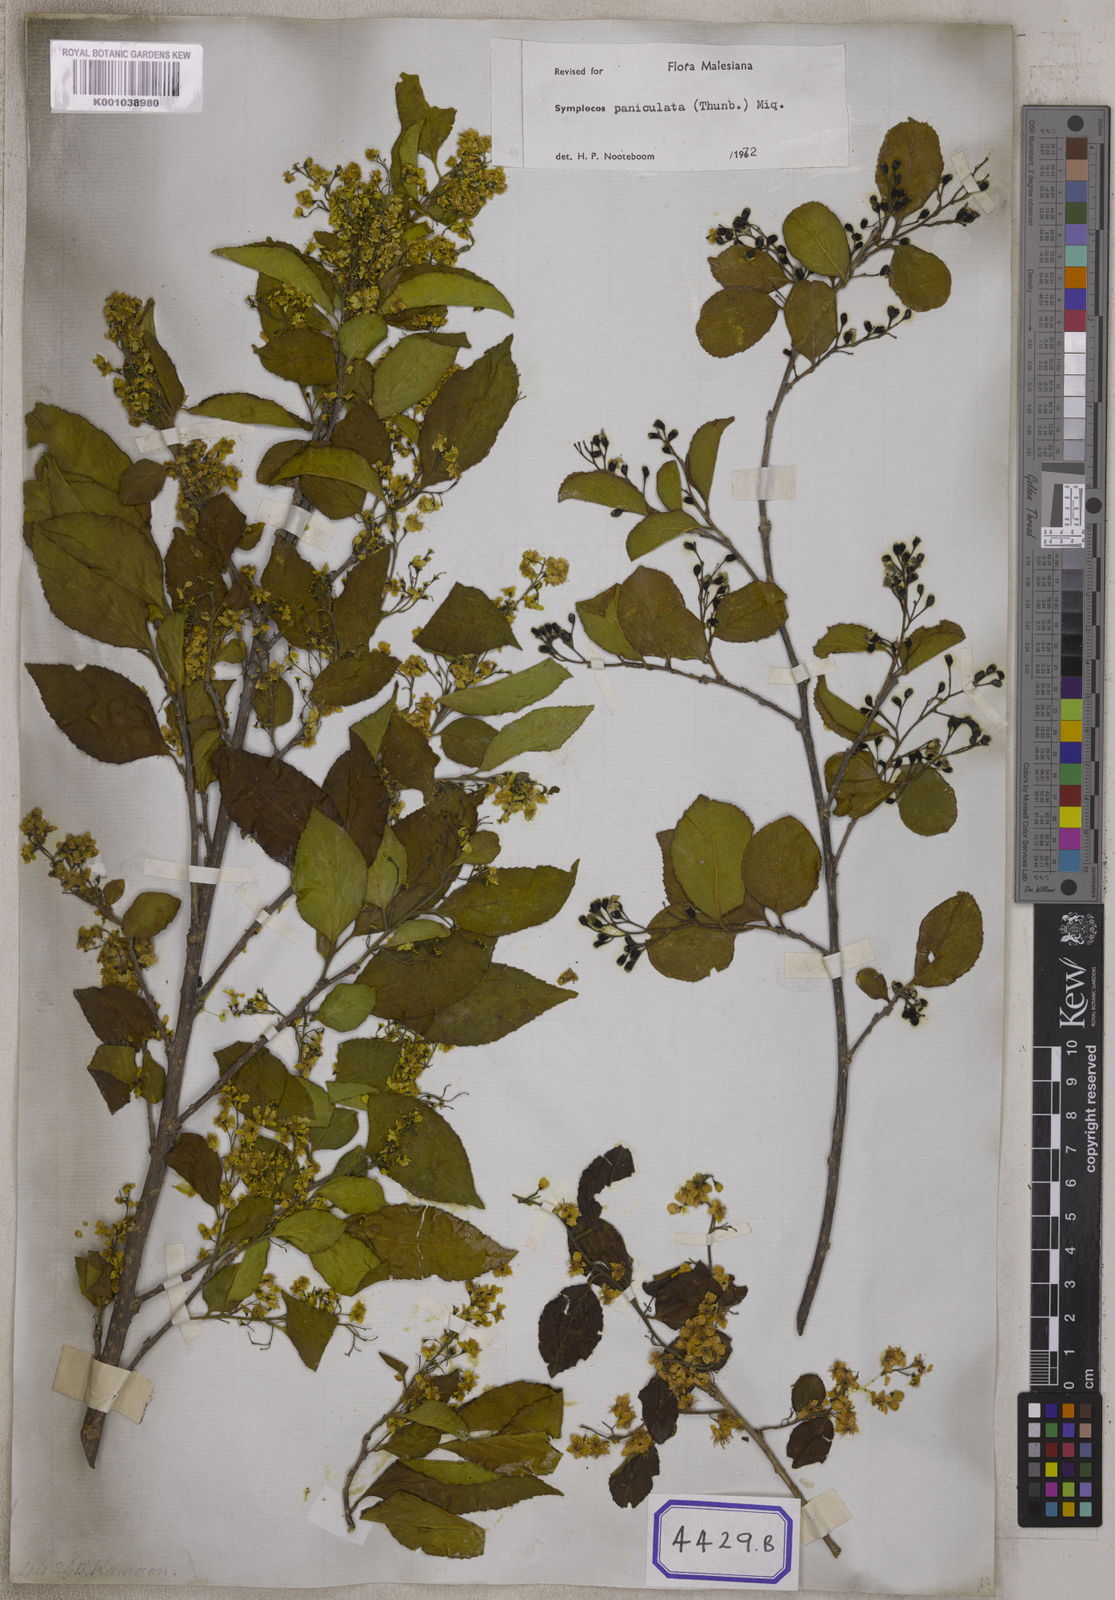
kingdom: Plantae
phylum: Tracheophyta
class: Magnoliopsida
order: Ericales
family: Symplocaceae
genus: Symplocos
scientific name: Symplocos
